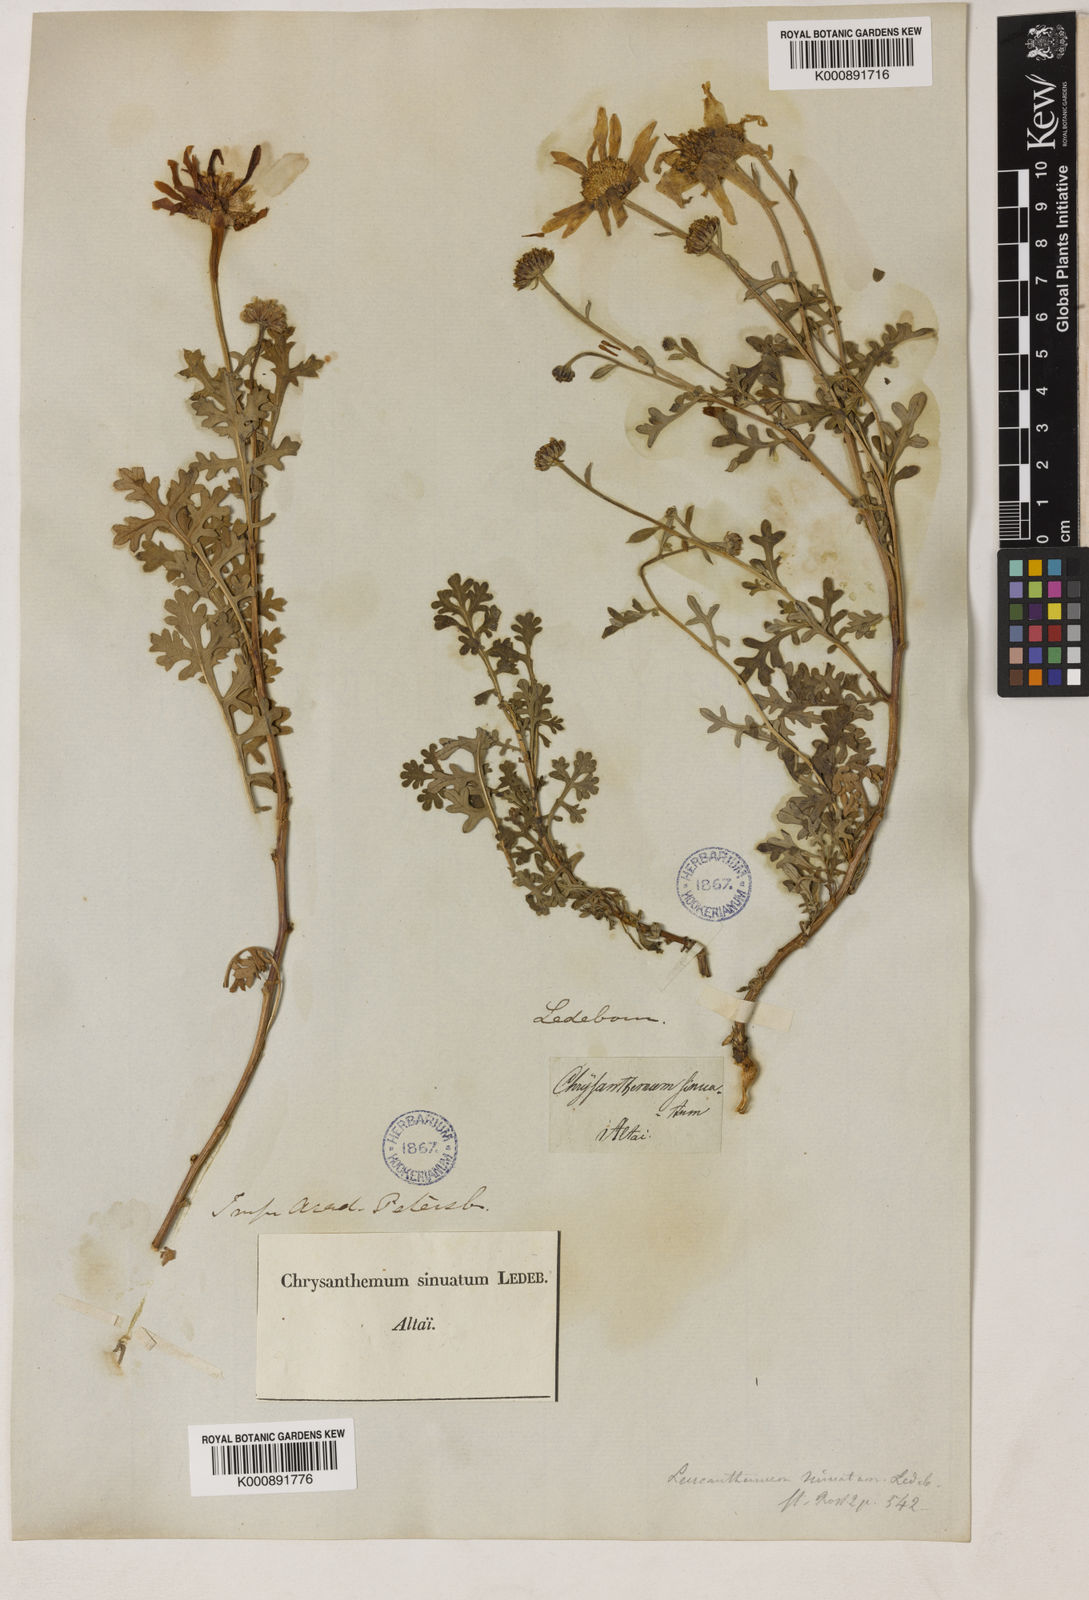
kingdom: Plantae
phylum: Tracheophyta
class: Magnoliopsida
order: Asterales
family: Asteraceae
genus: Chrysanthemum
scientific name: Chrysanthemum sinuatum
